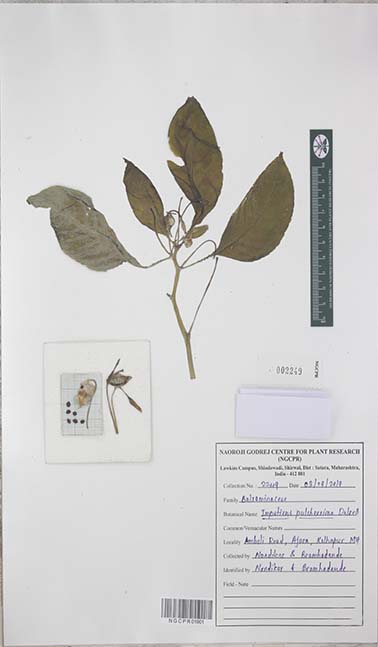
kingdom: Plantae
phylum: Tracheophyta
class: Magnoliopsida
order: Ericales
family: Balsaminaceae
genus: Impatiens
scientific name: Impatiens pulcherrima
